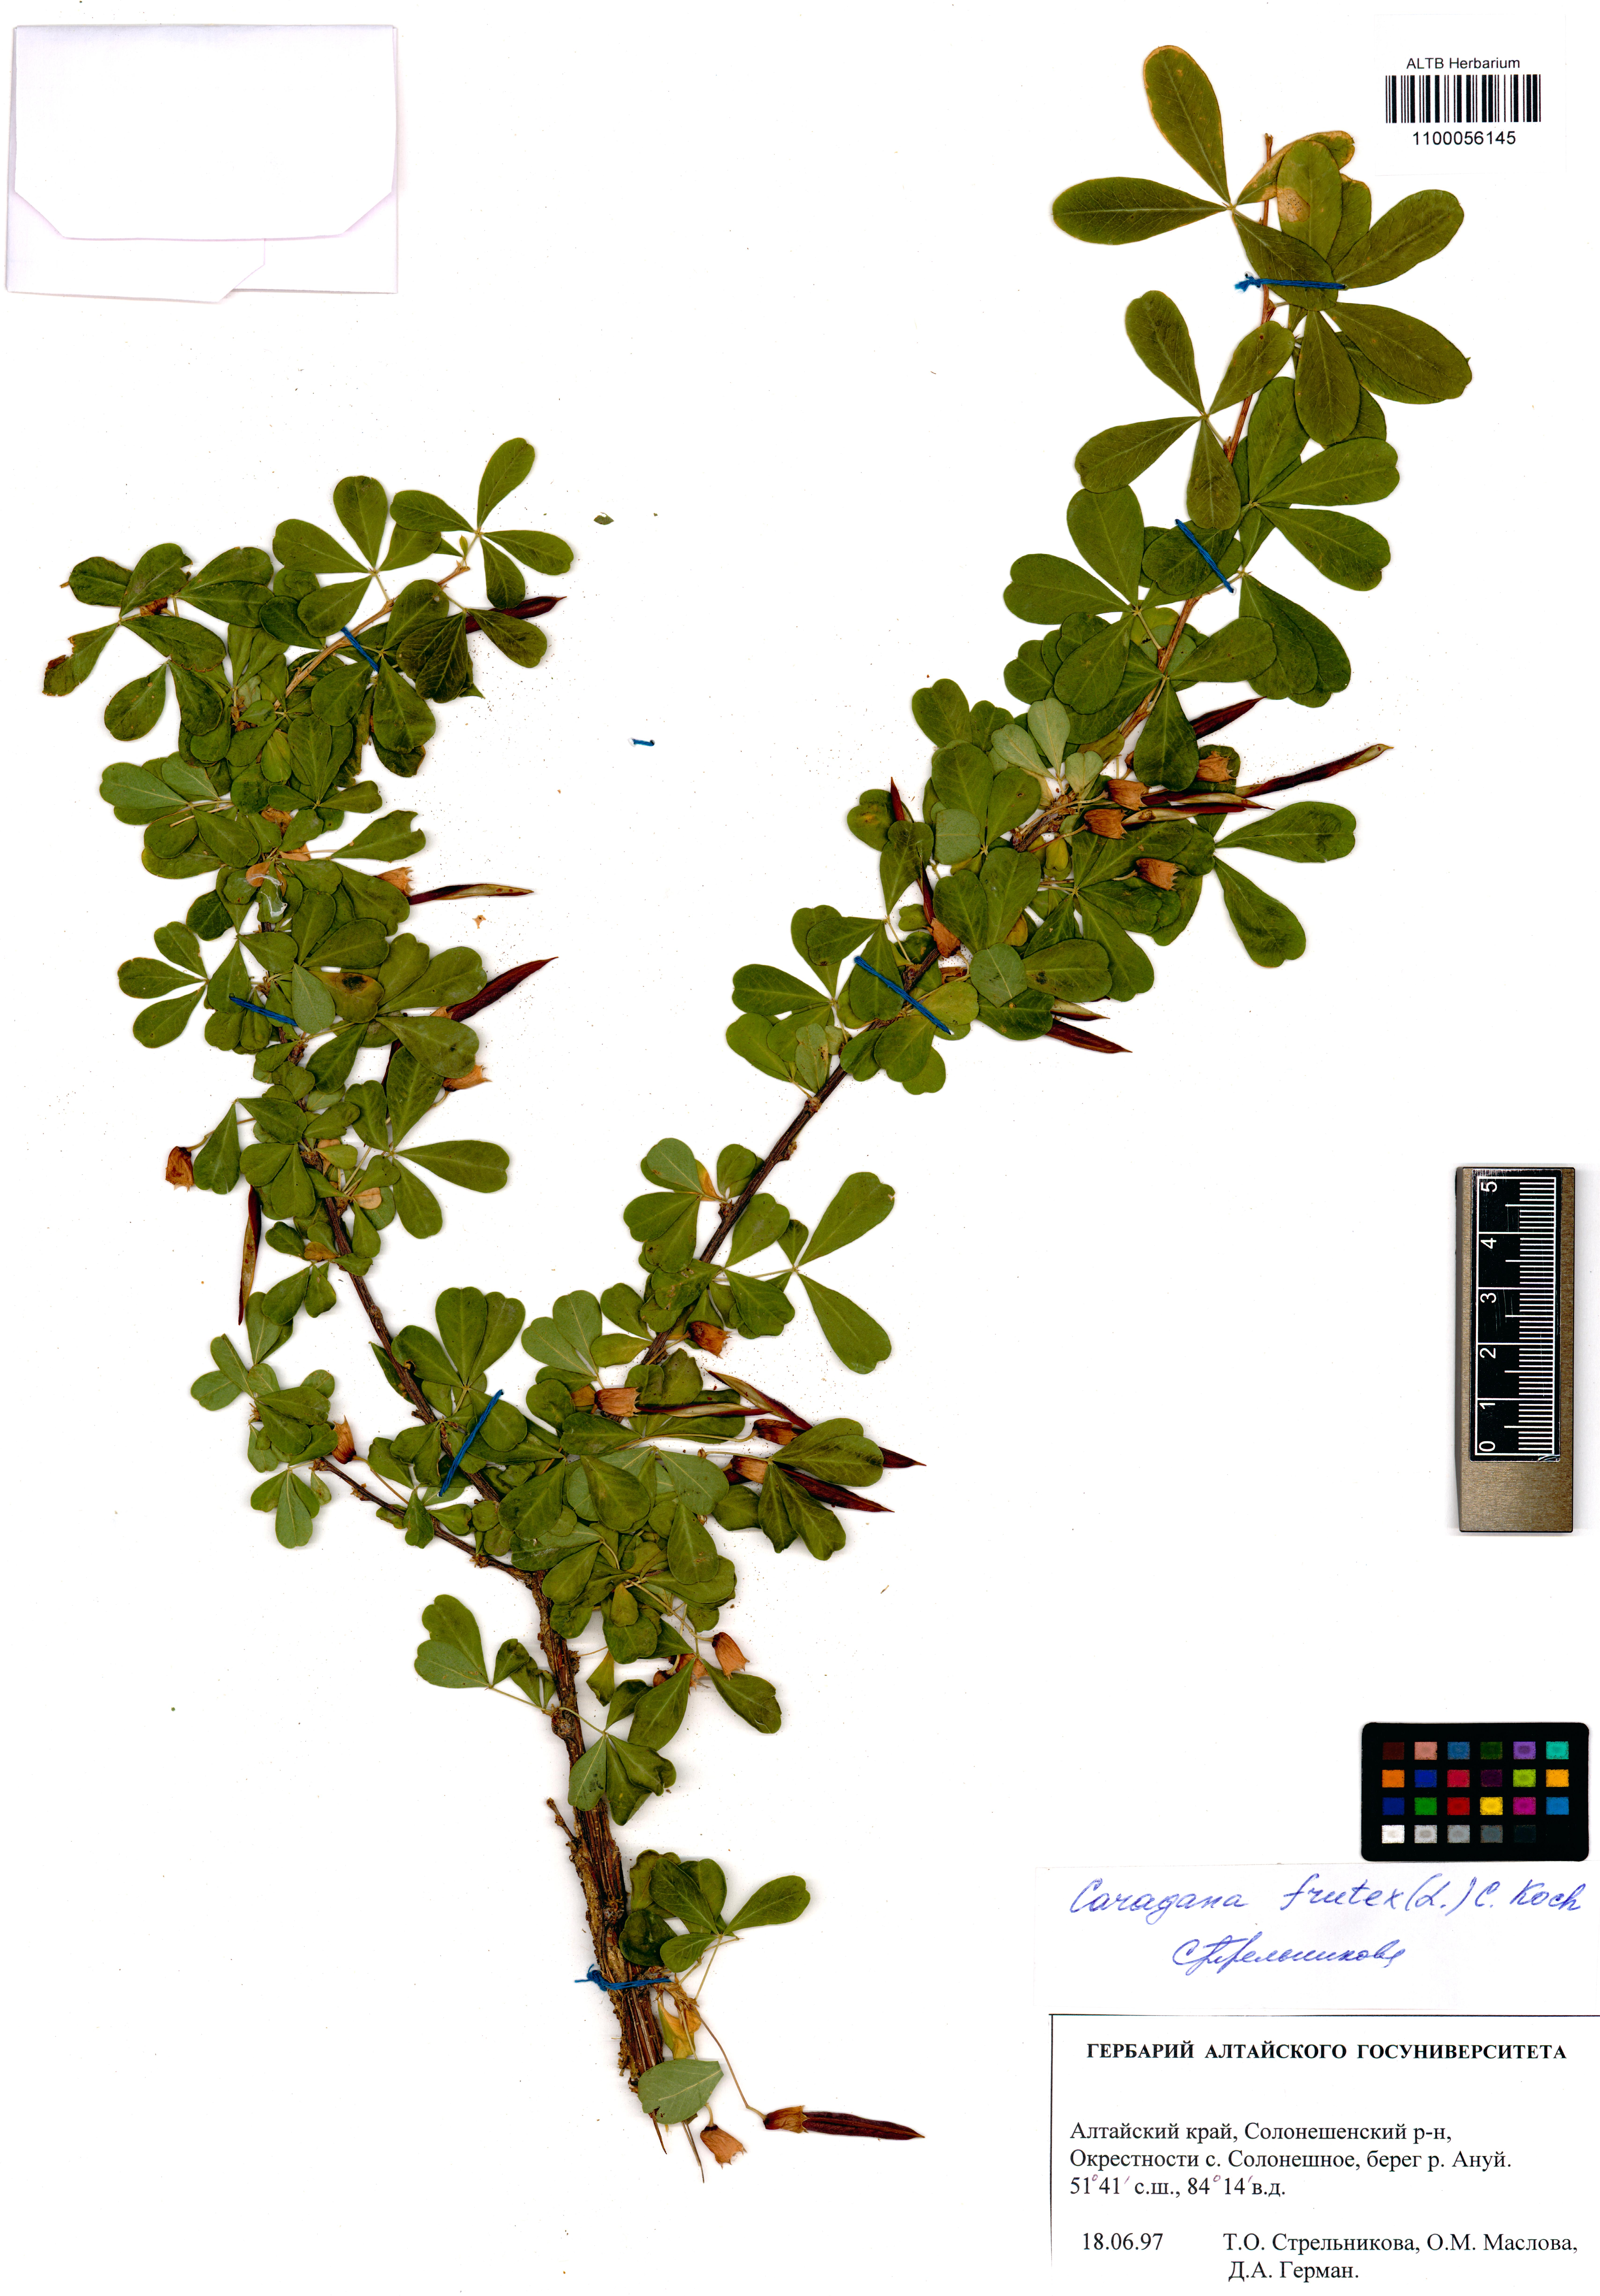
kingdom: Plantae
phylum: Tracheophyta
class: Magnoliopsida
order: Fabales
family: Fabaceae
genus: Caragana
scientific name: Caragana frutex
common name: Russian peashrub
